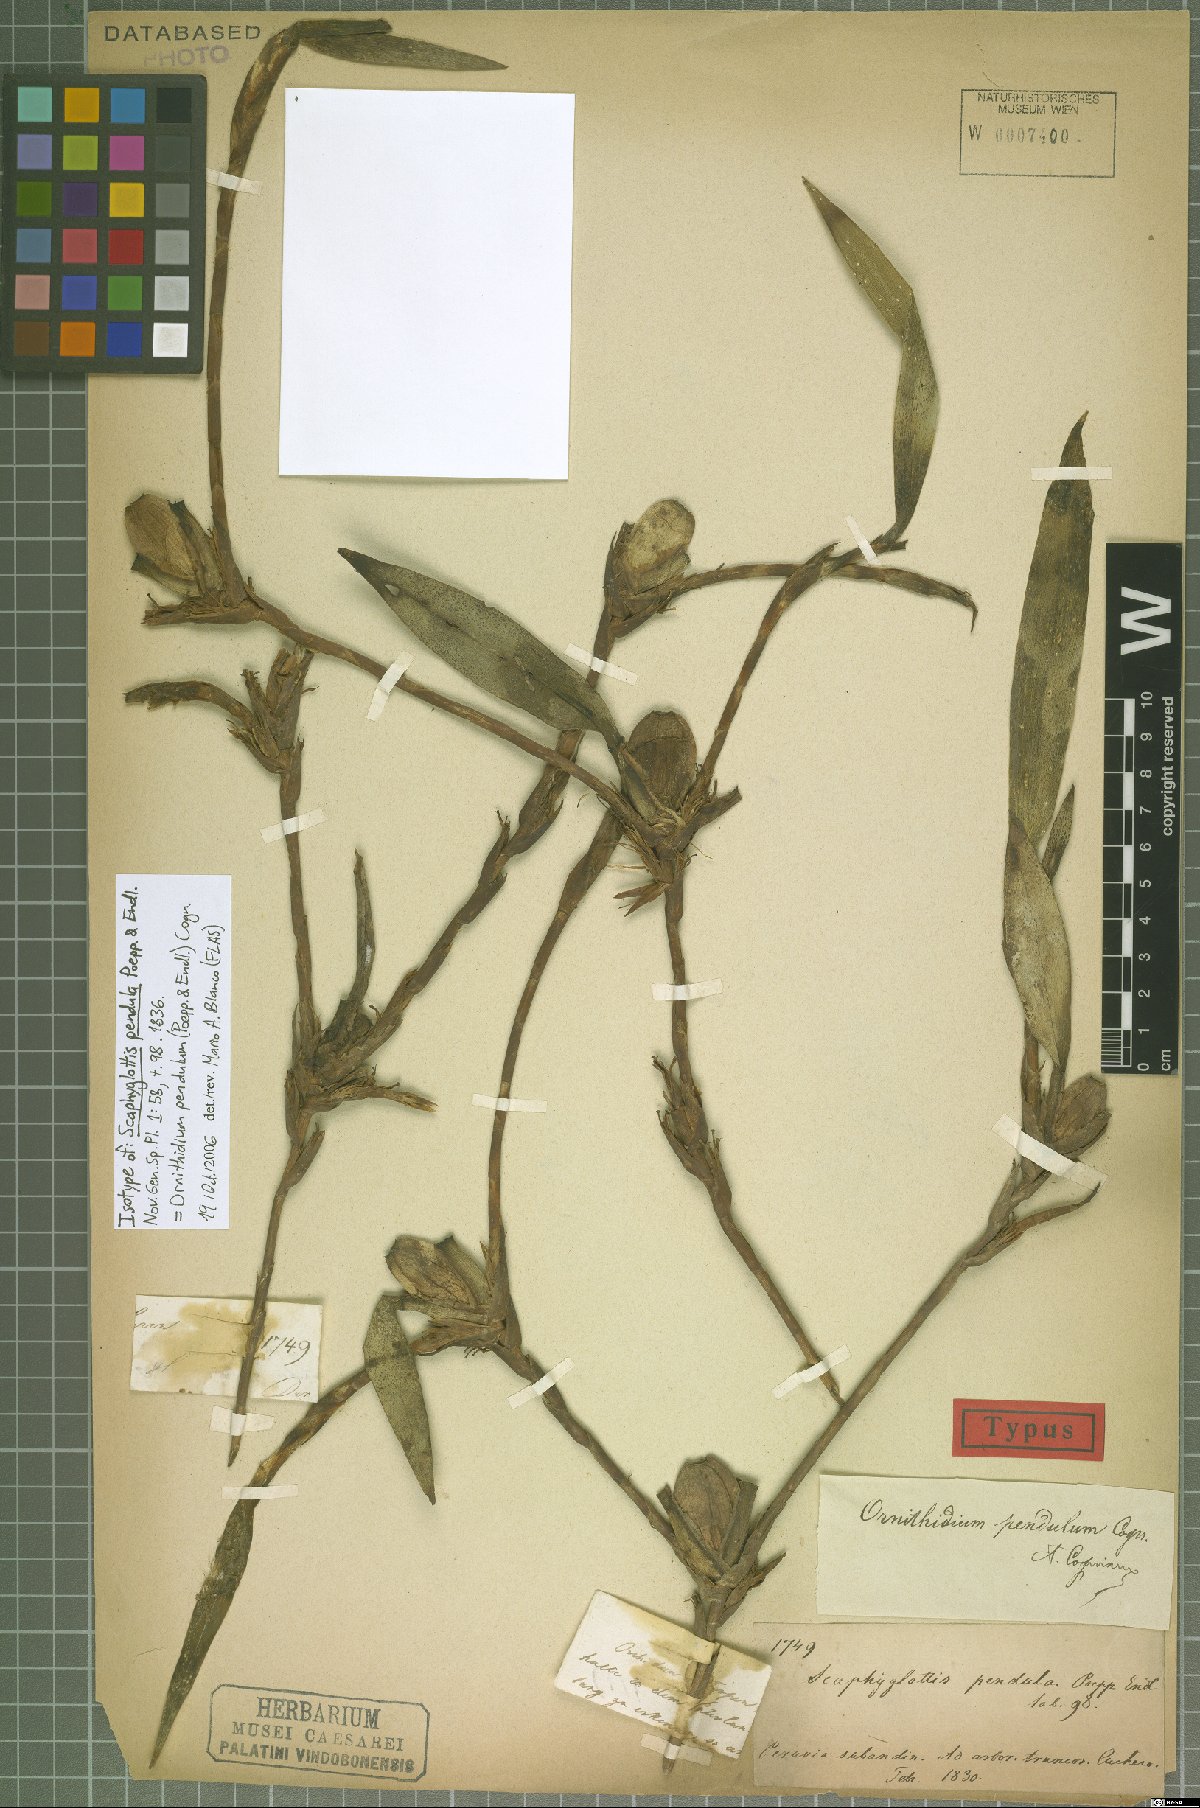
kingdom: Plantae
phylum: Tracheophyta
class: Liliopsida
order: Asparagales
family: Orchidaceae
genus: Maxillaria
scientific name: Maxillaria pendula
